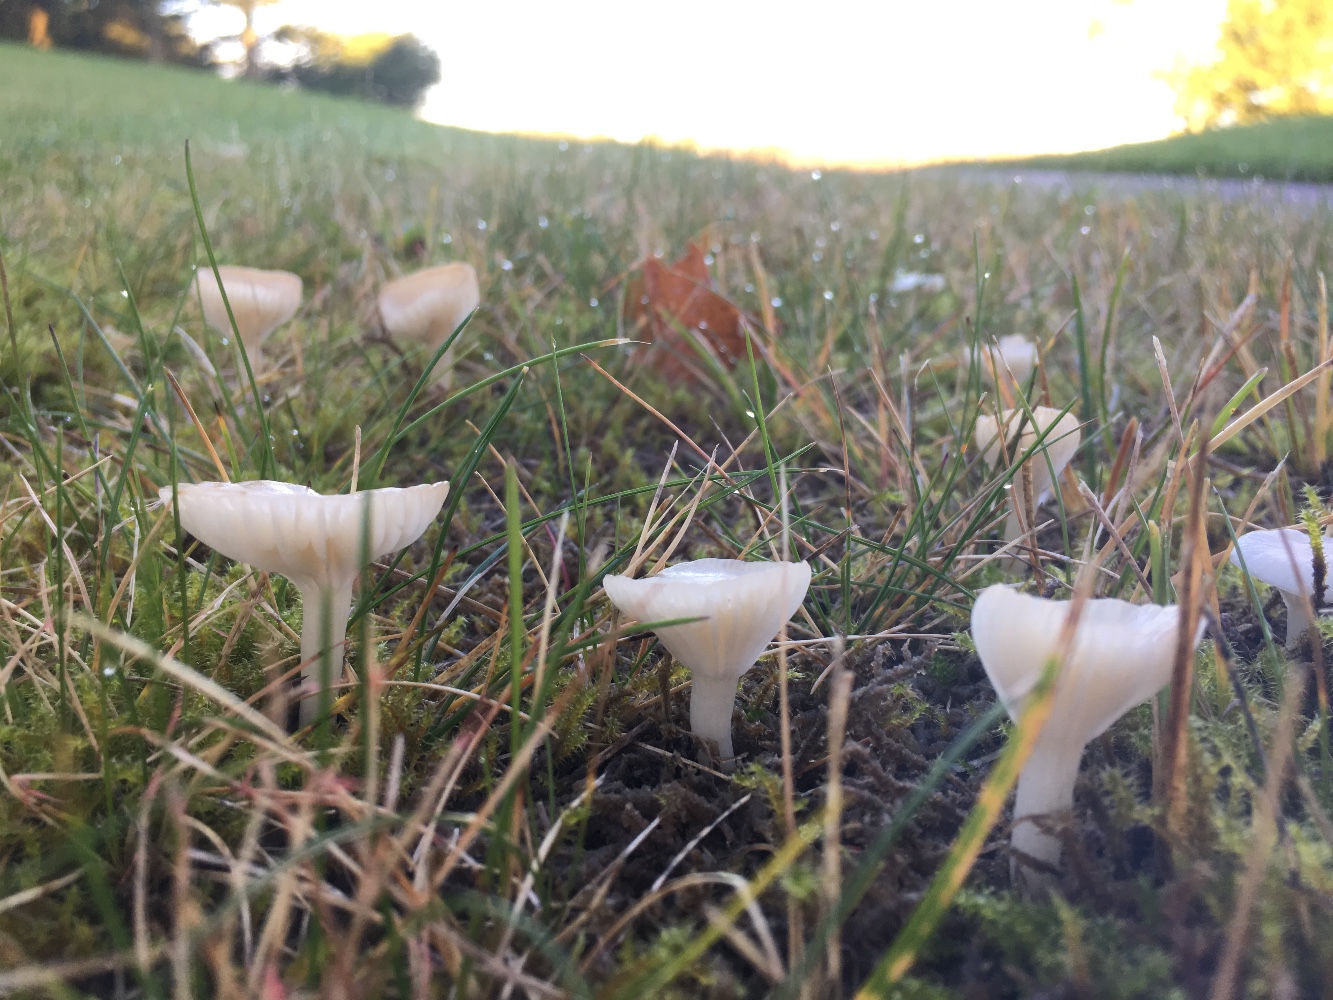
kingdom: Fungi
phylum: Basidiomycota
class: Agaricomycetes
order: Agaricales
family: Hygrophoraceae
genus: Cuphophyllus
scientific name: Cuphophyllus virgineus
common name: snehvid vokshat
